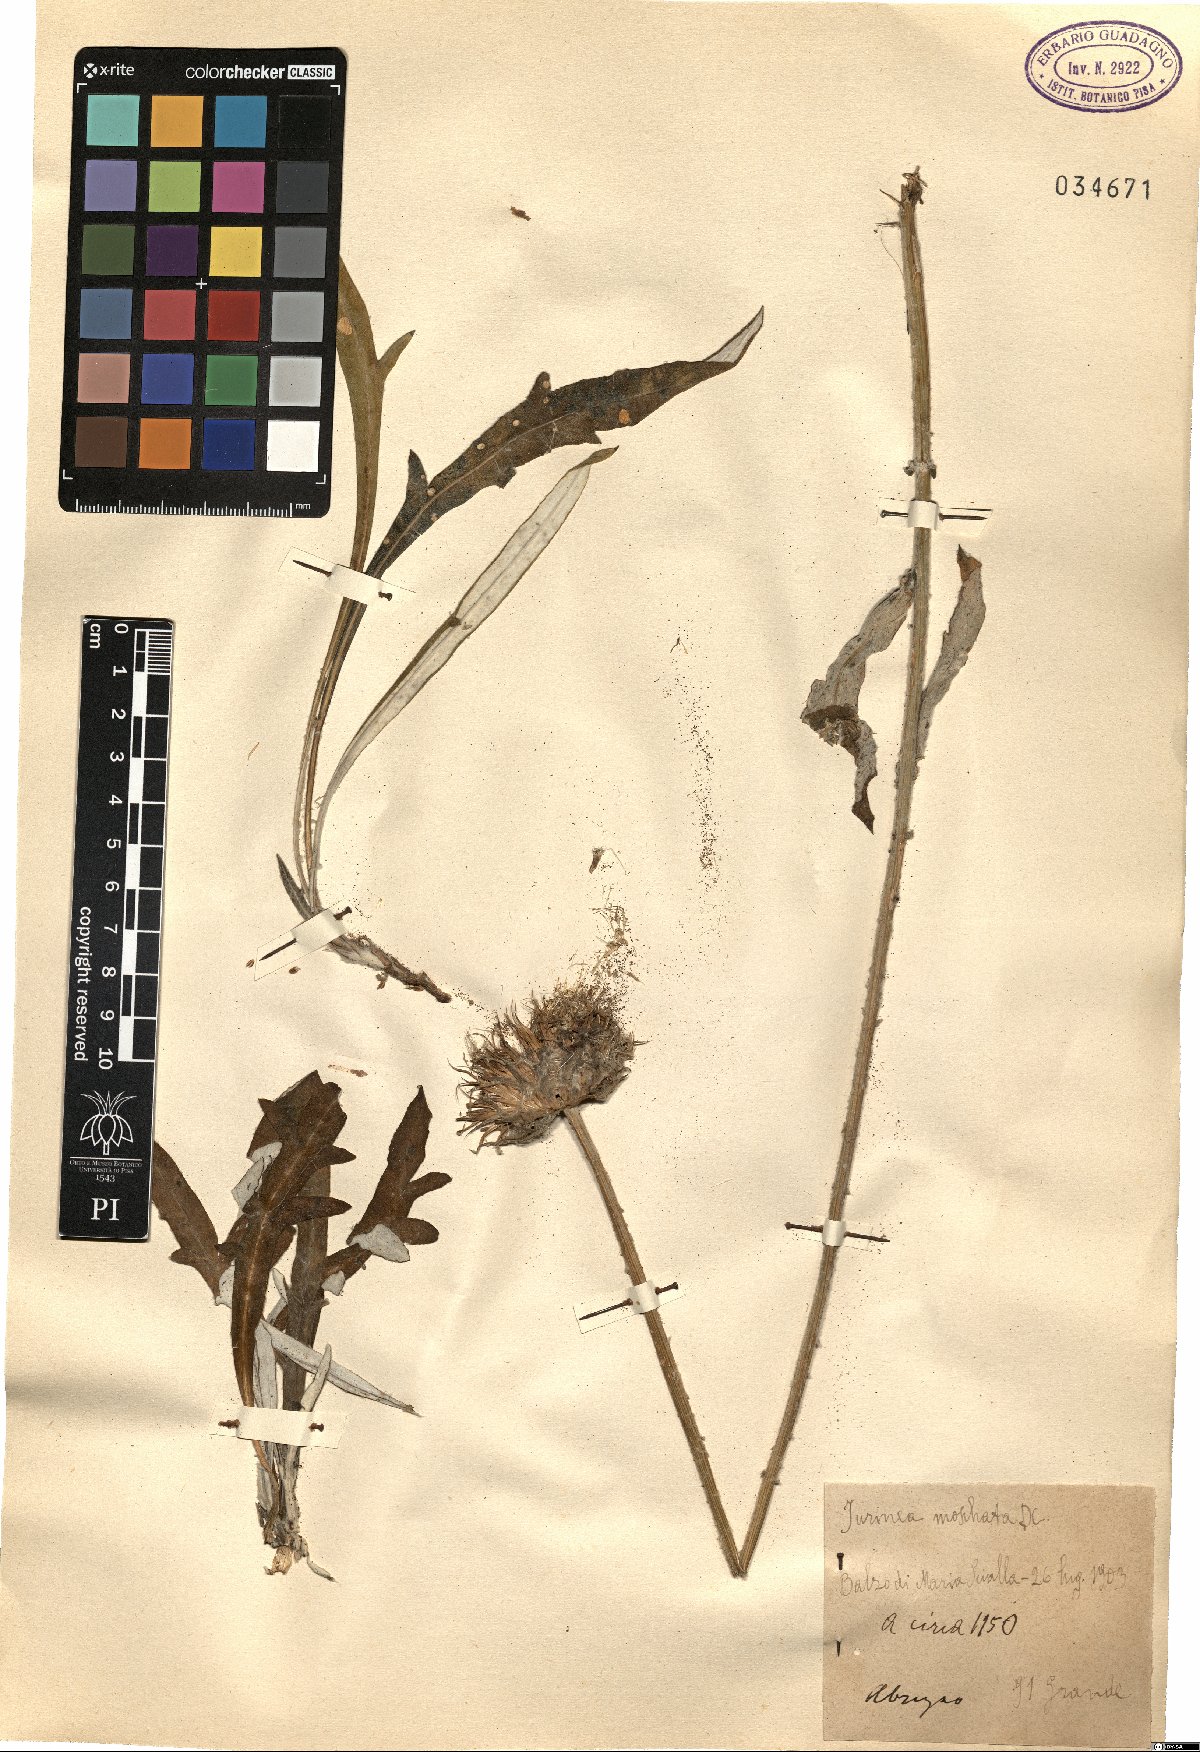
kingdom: Plantae
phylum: Tracheophyta
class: Magnoliopsida
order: Asterales
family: Asteraceae
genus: Jurinea
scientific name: Jurinea mollis
